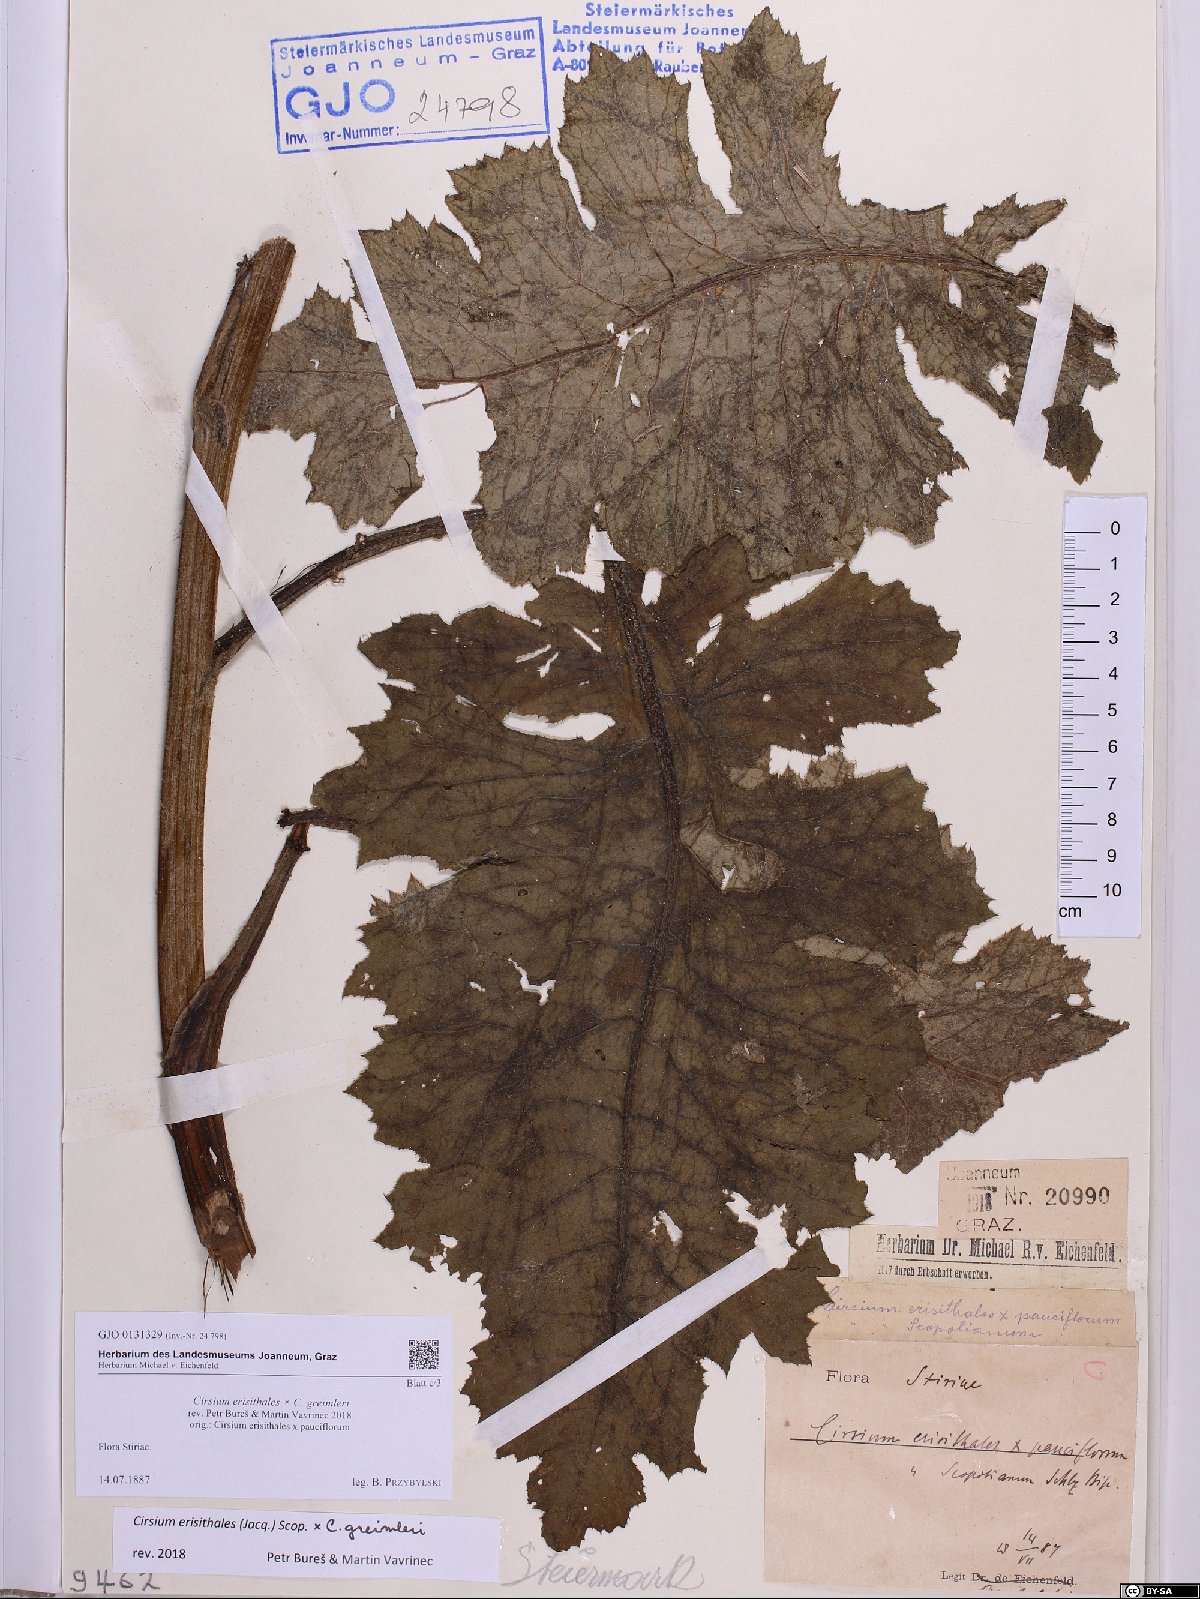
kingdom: Plantae
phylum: Tracheophyta
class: Magnoliopsida
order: Asterales
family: Asteraceae
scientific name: Asteraceae
